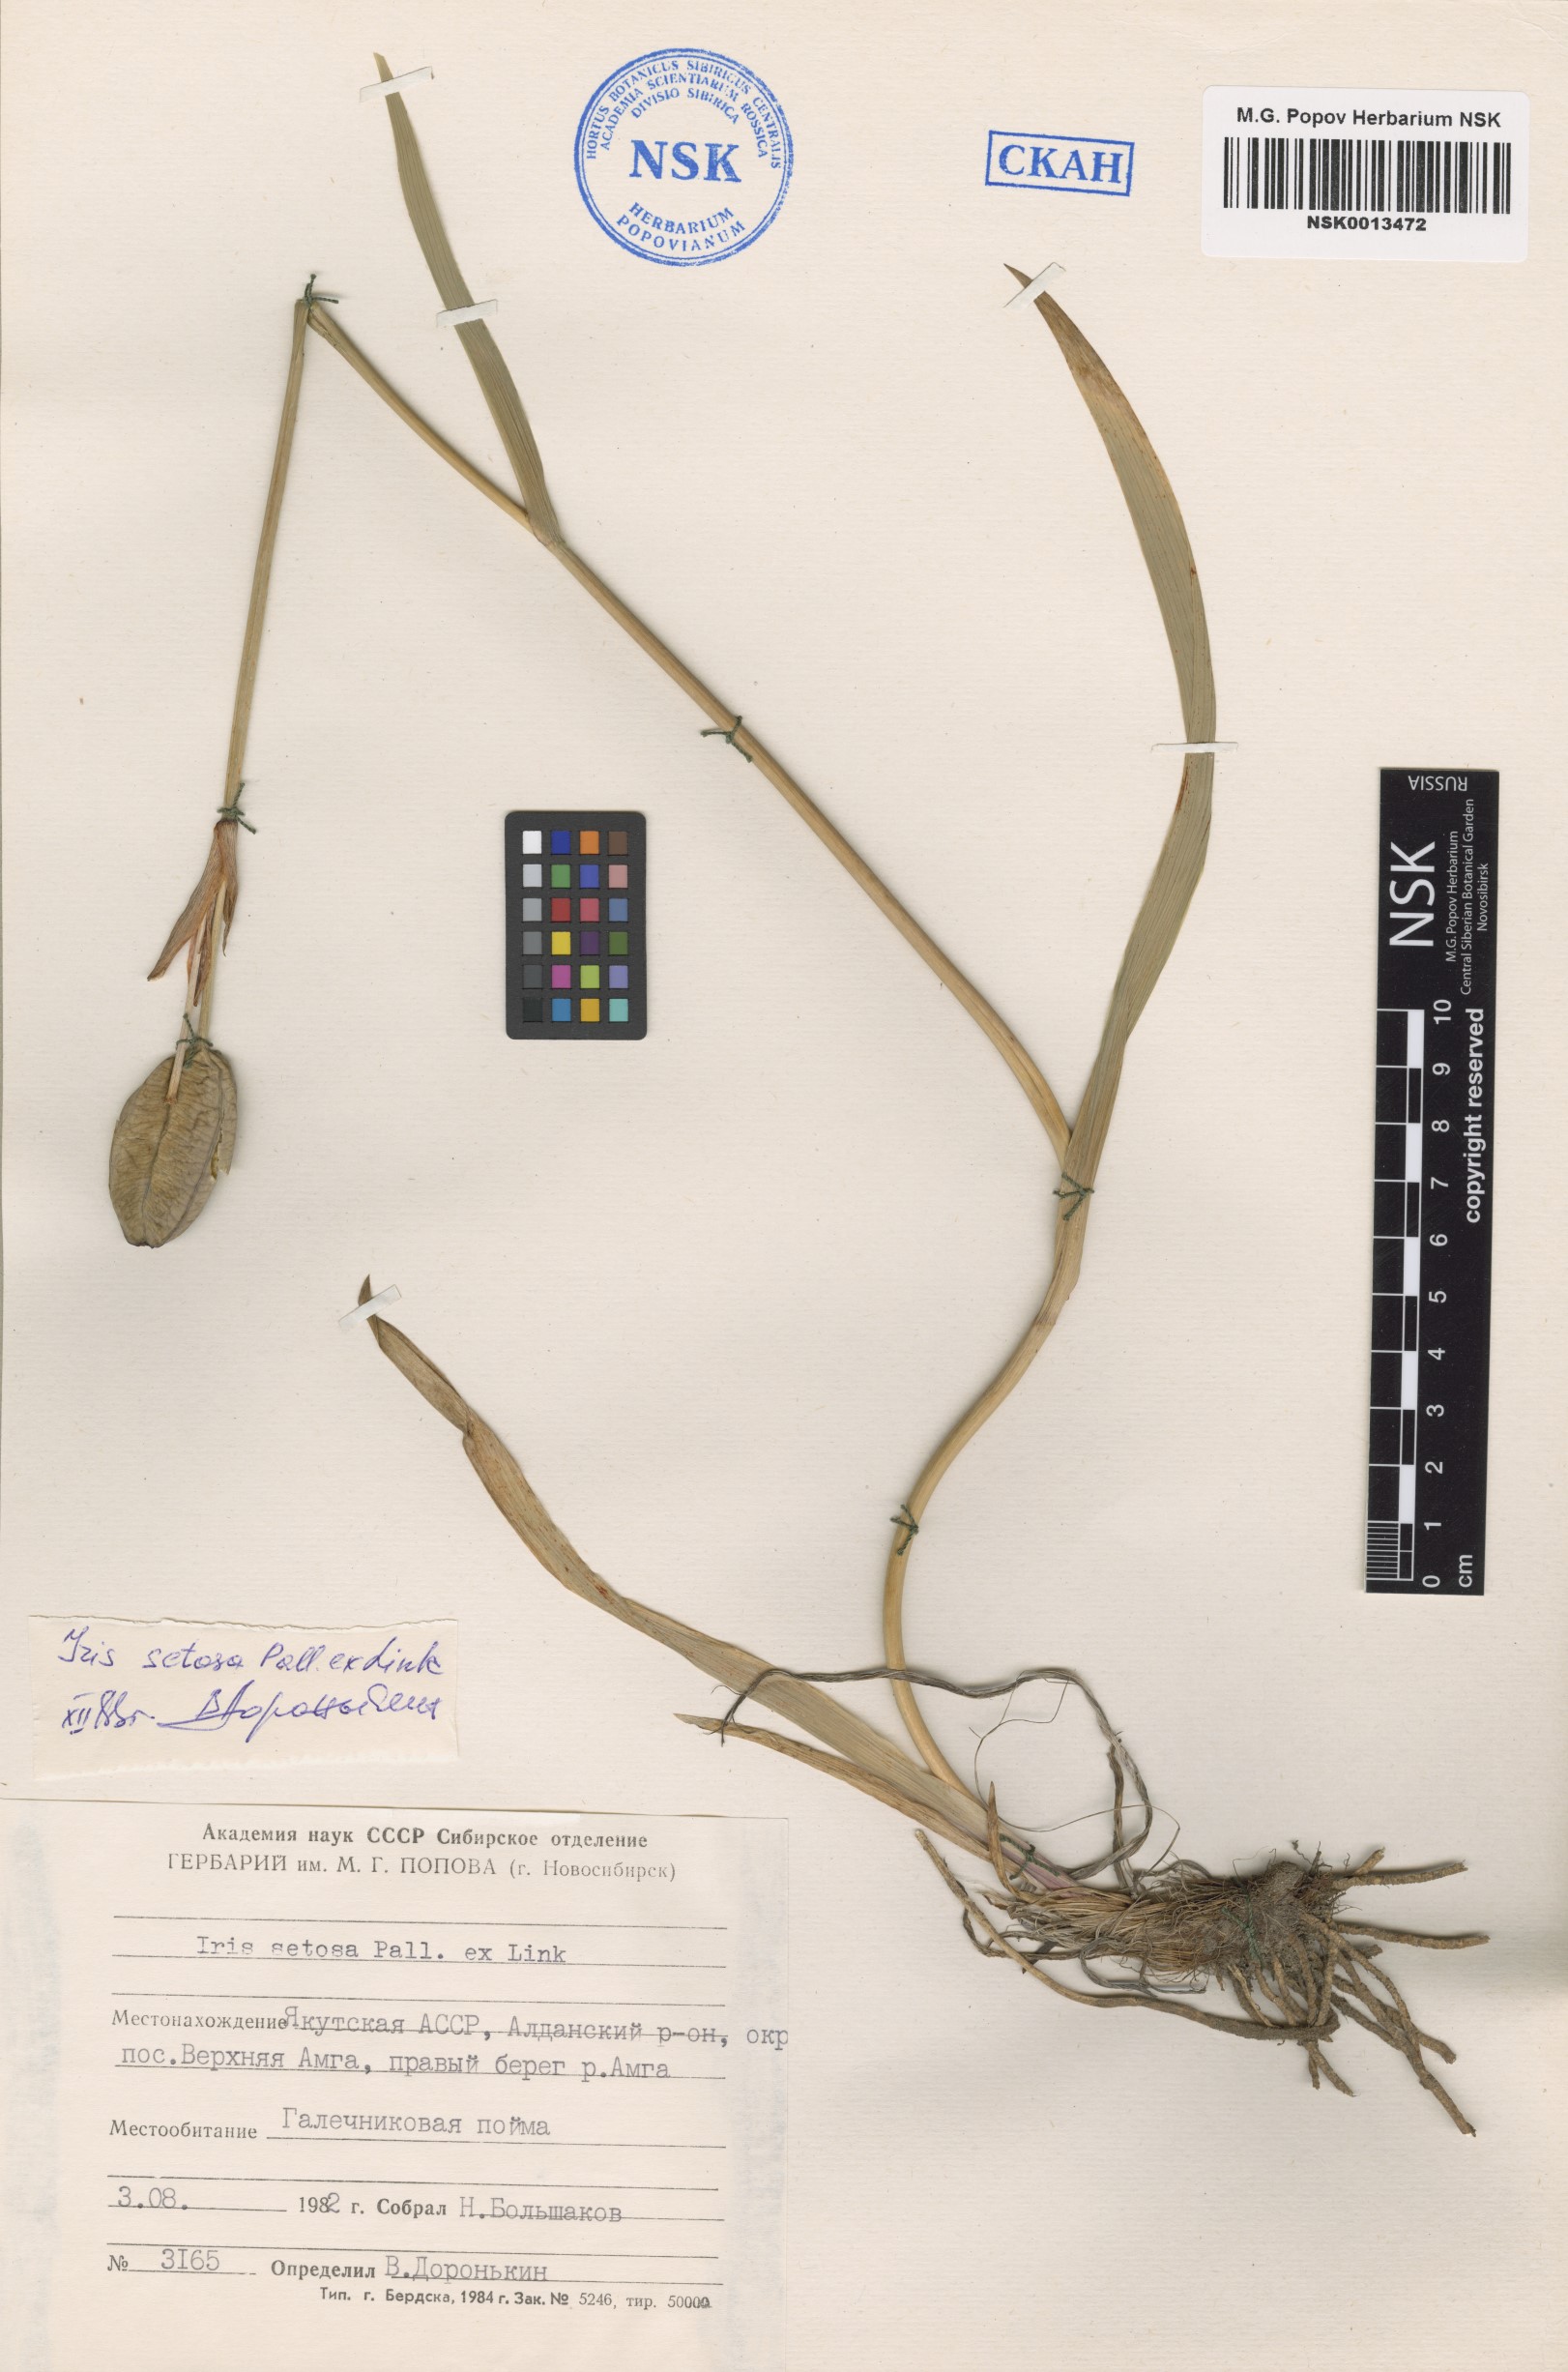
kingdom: Plantae
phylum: Tracheophyta
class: Liliopsida
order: Asparagales
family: Iridaceae
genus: Iris
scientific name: Iris setosa
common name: Arctic blue flag
